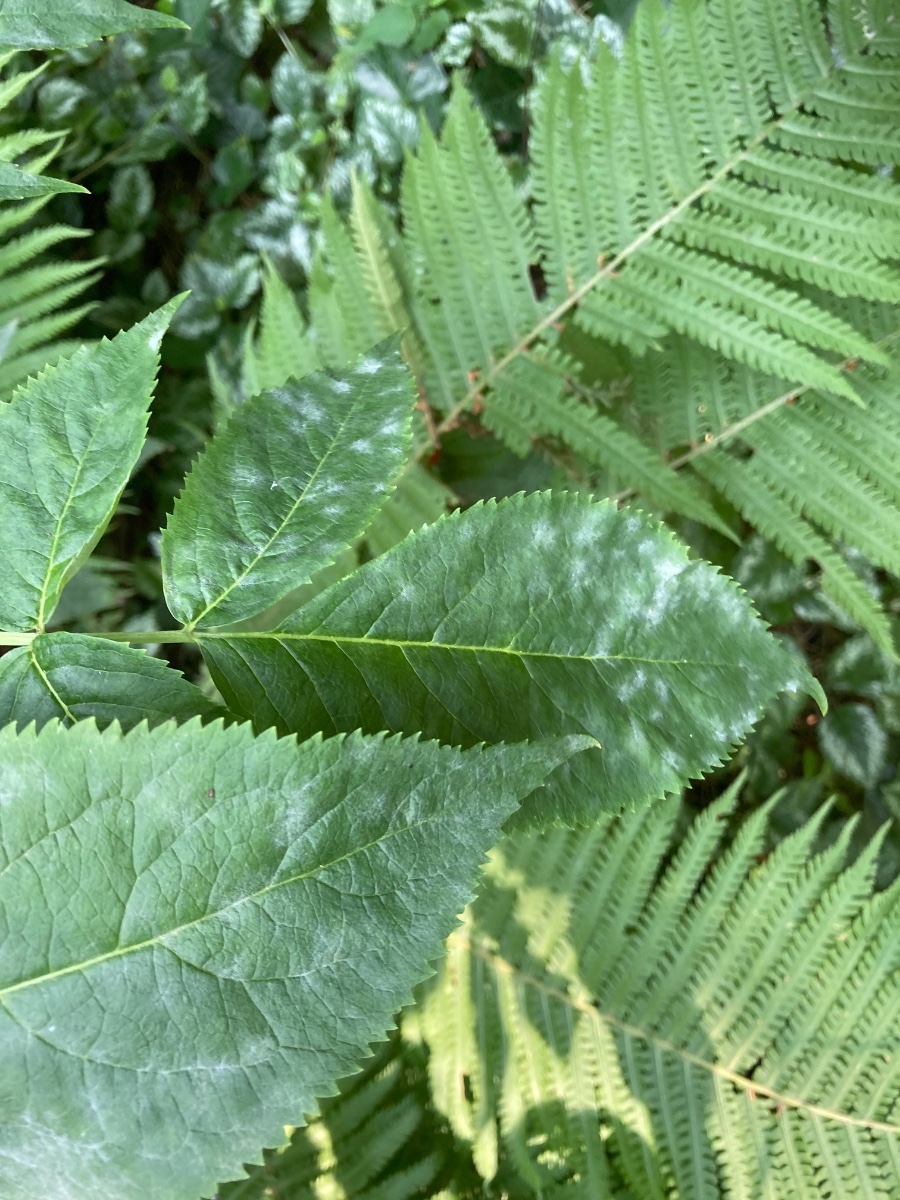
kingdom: Fungi
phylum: Ascomycota
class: Leotiomycetes
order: Helotiales
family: Erysiphaceae
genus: Erysiphe
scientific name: Erysiphe vanbruntiana
